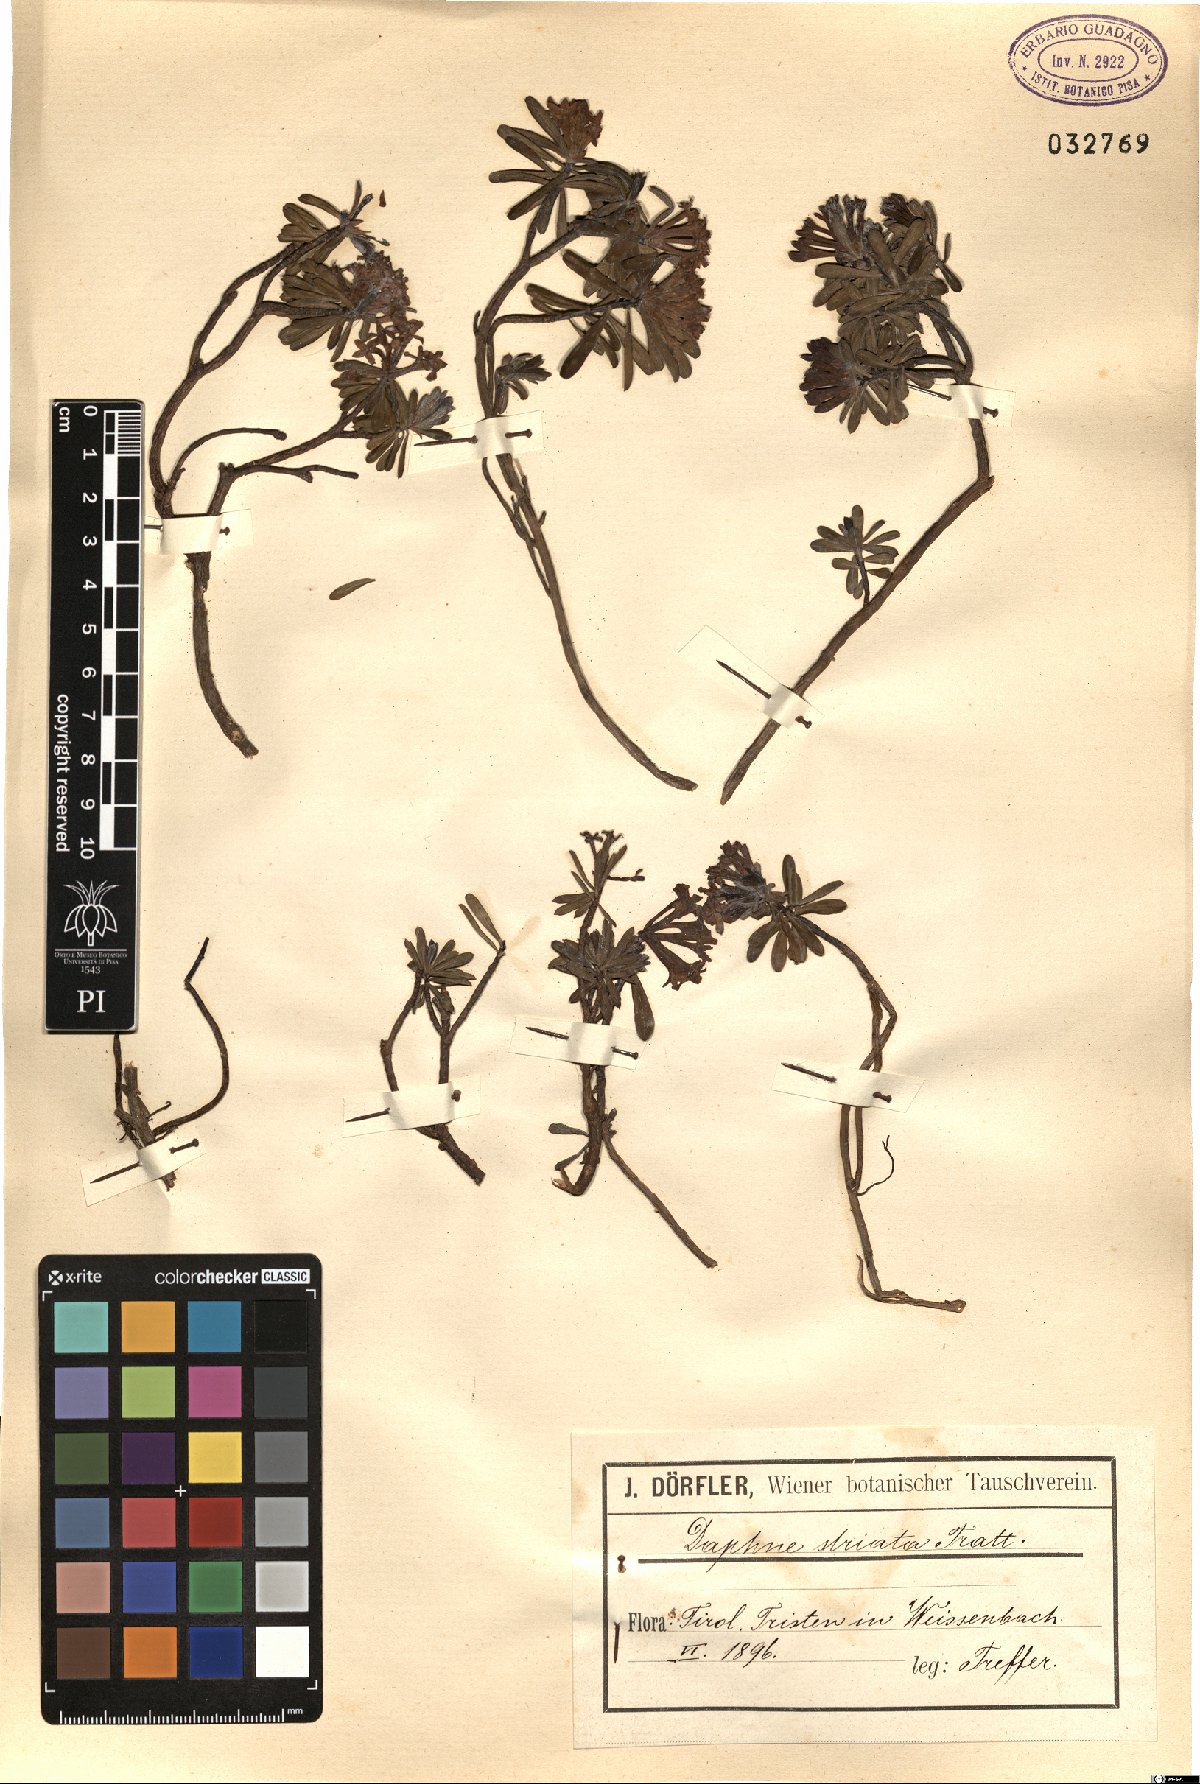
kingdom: Plantae
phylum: Tracheophyta
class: Magnoliopsida
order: Malvales
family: Thymelaeaceae
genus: Daphne
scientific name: Daphne striata
